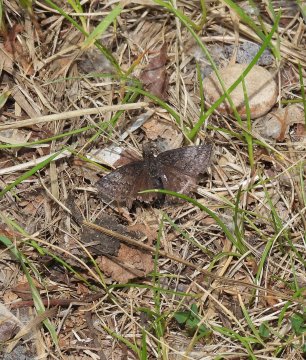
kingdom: Animalia
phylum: Arthropoda
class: Insecta
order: Lepidoptera
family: Hesperiidae
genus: Erynnis
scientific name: Erynnis icelus
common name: Dreamy Duskywing
